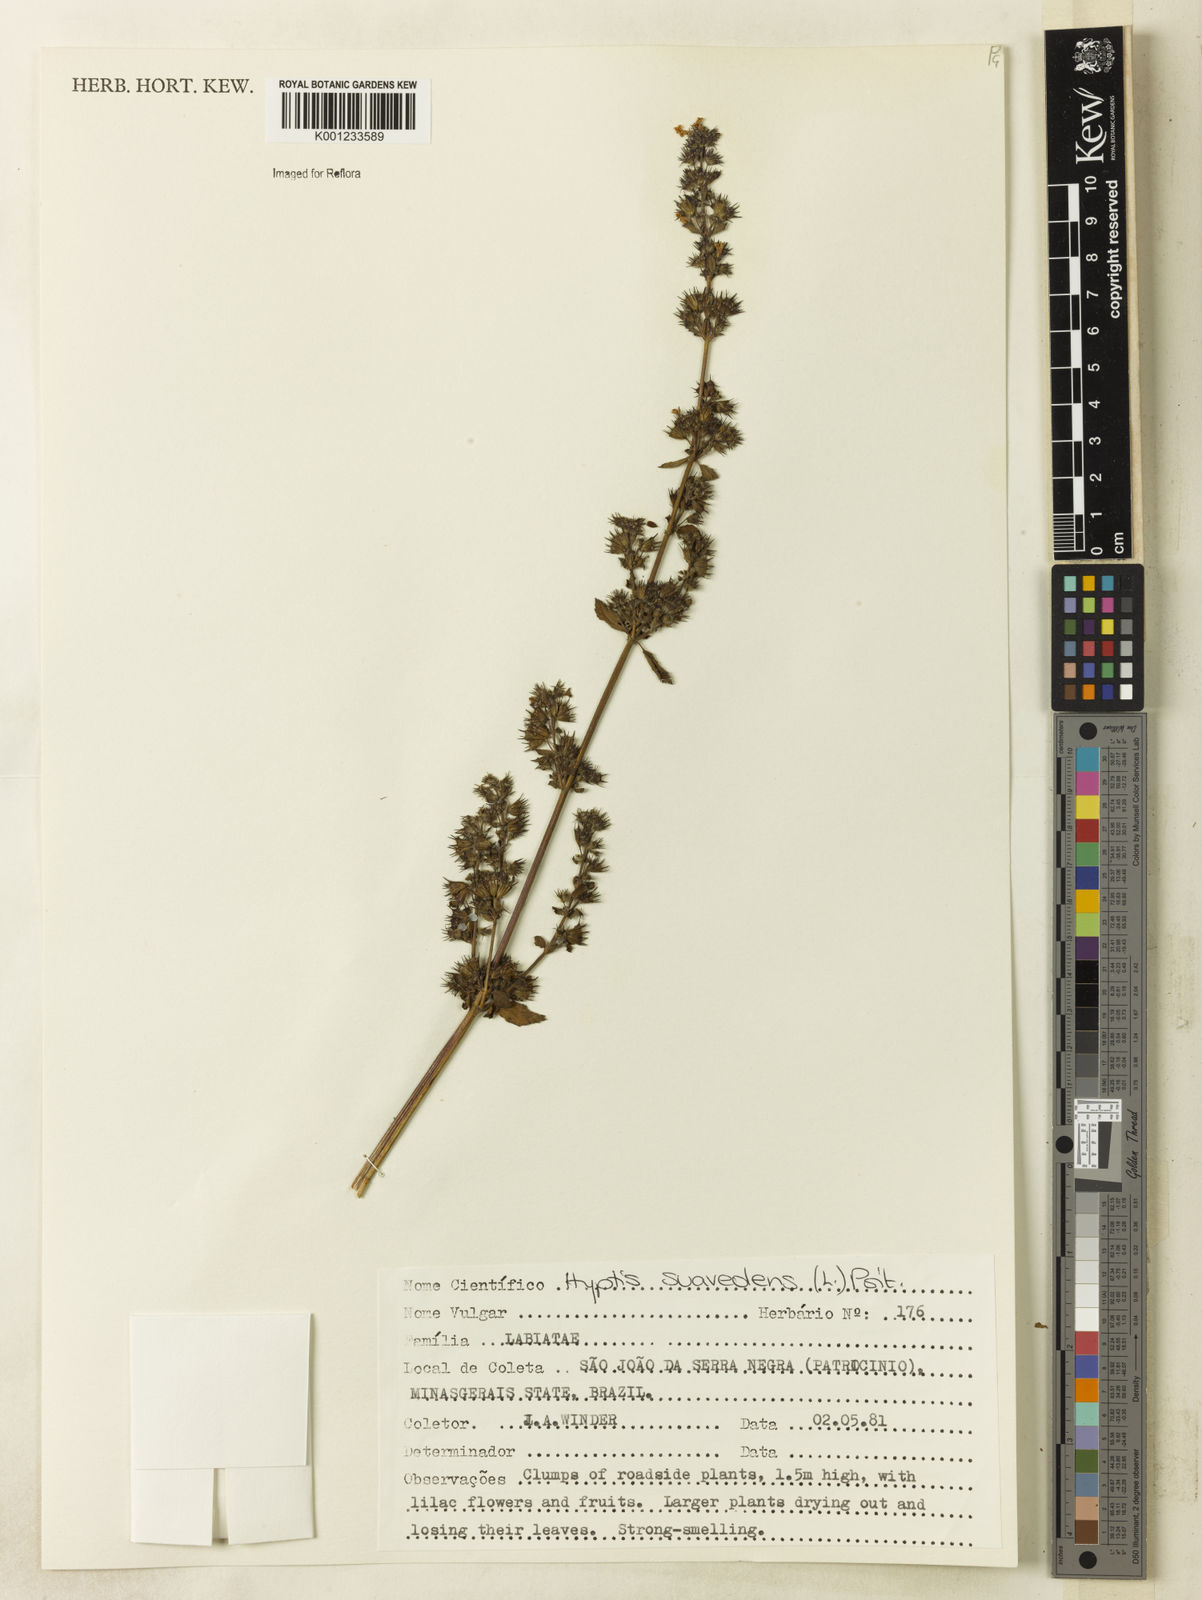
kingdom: Plantae
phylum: Tracheophyta
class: Magnoliopsida
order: Lamiales
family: Lamiaceae
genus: Mesosphaerum
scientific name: Mesosphaerum suaveolens
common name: Pignut
